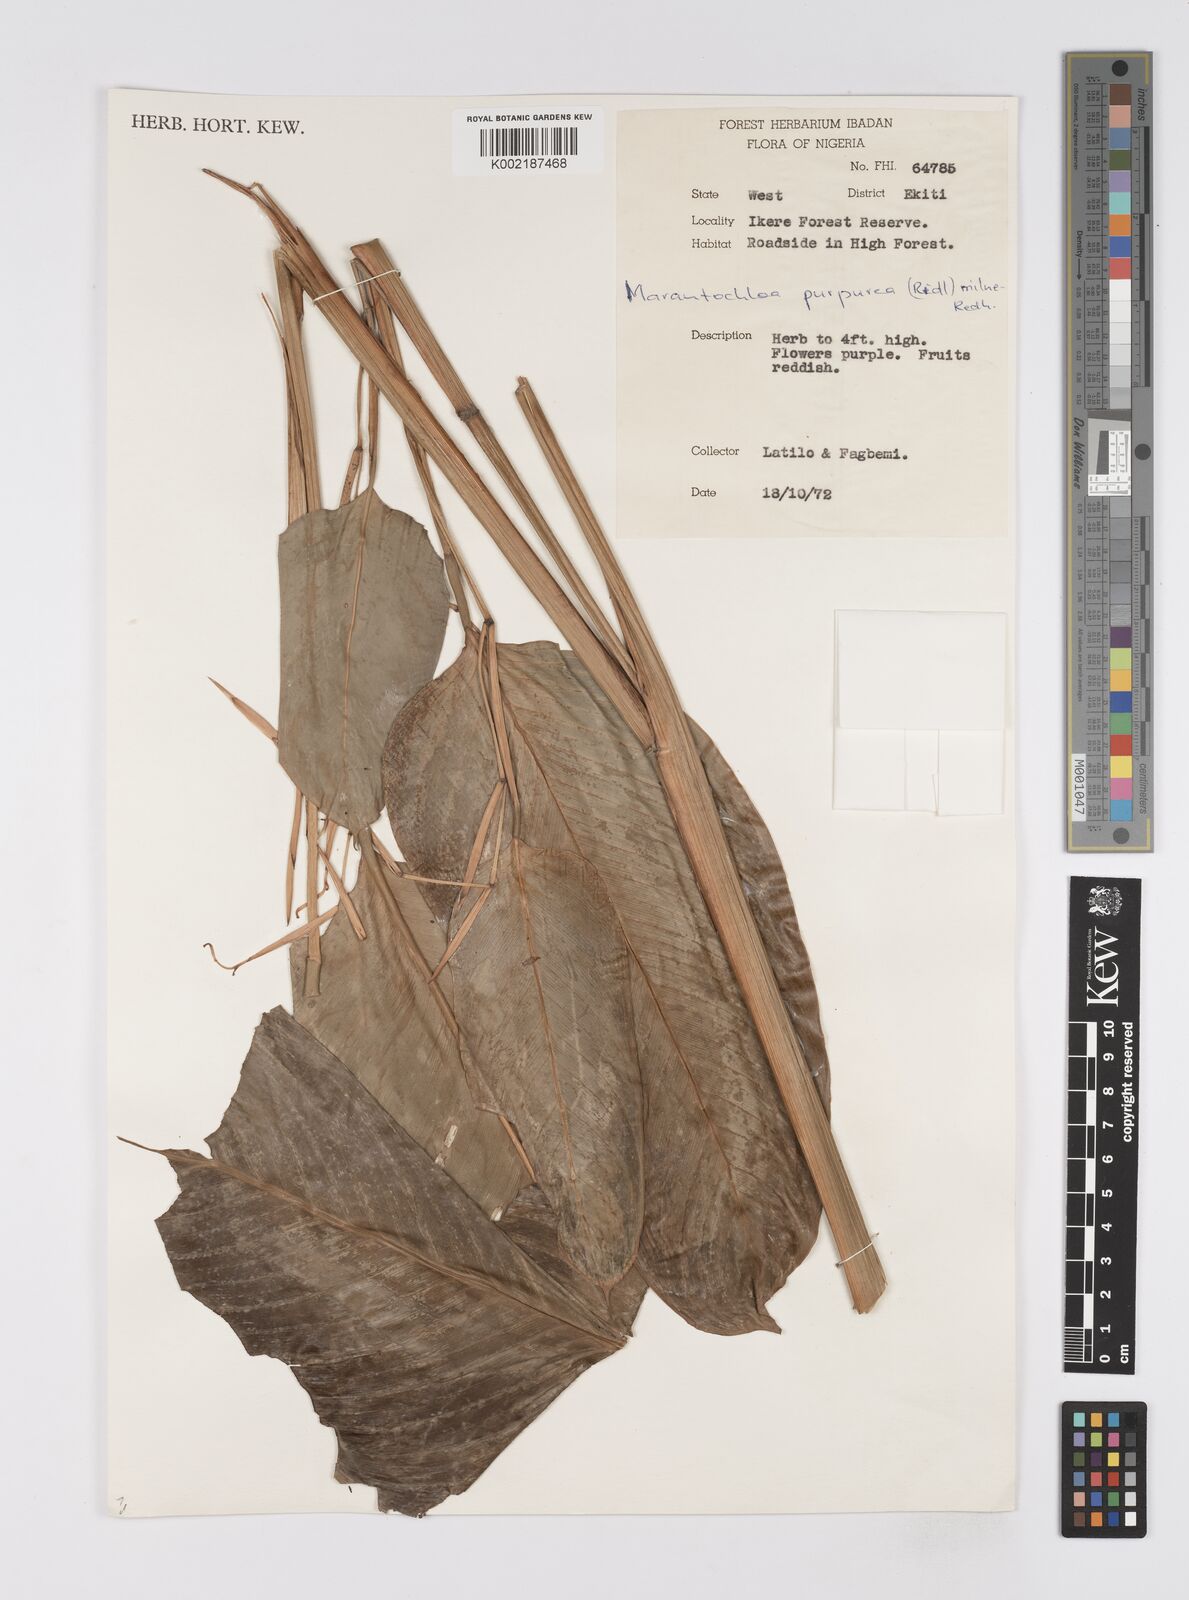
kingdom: Plantae
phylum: Tracheophyta
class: Liliopsida
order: Zingiberales
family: Marantaceae
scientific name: Marantaceae
